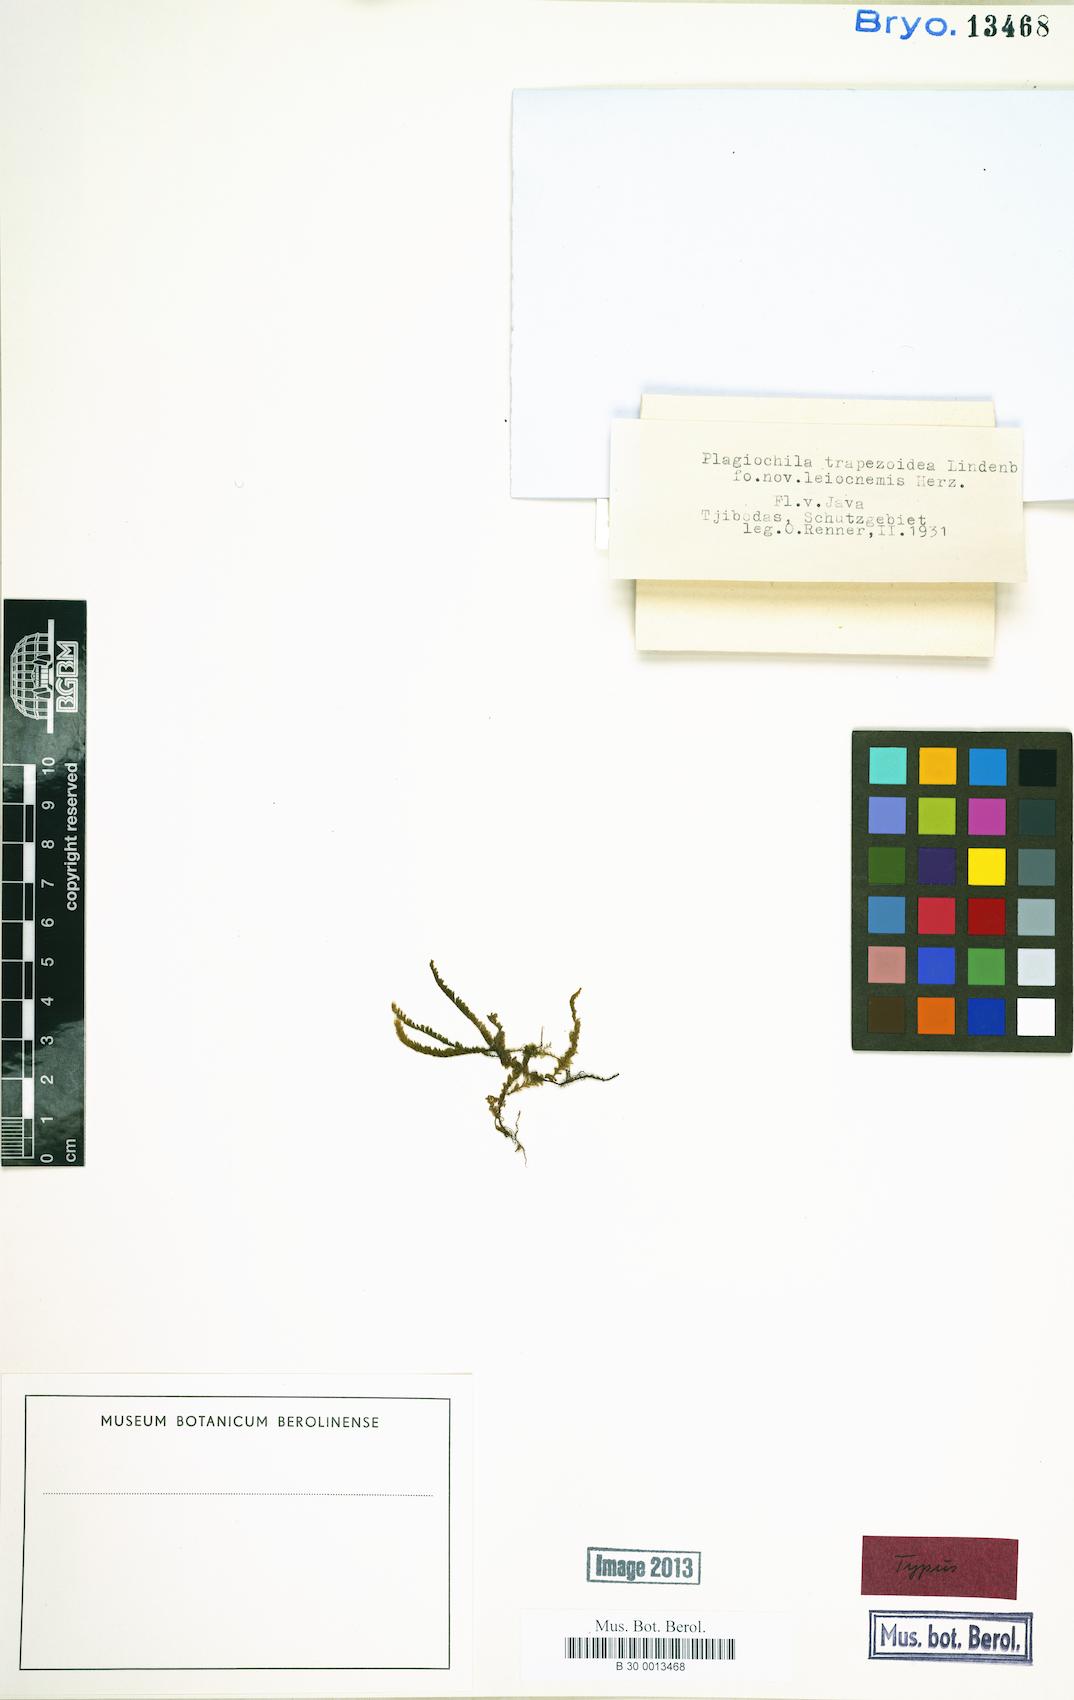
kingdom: Plantae
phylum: Marchantiophyta
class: Jungermanniopsida
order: Jungermanniales
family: Plagiochilaceae
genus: Plagiochila
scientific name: Plagiochila trapezoidea
